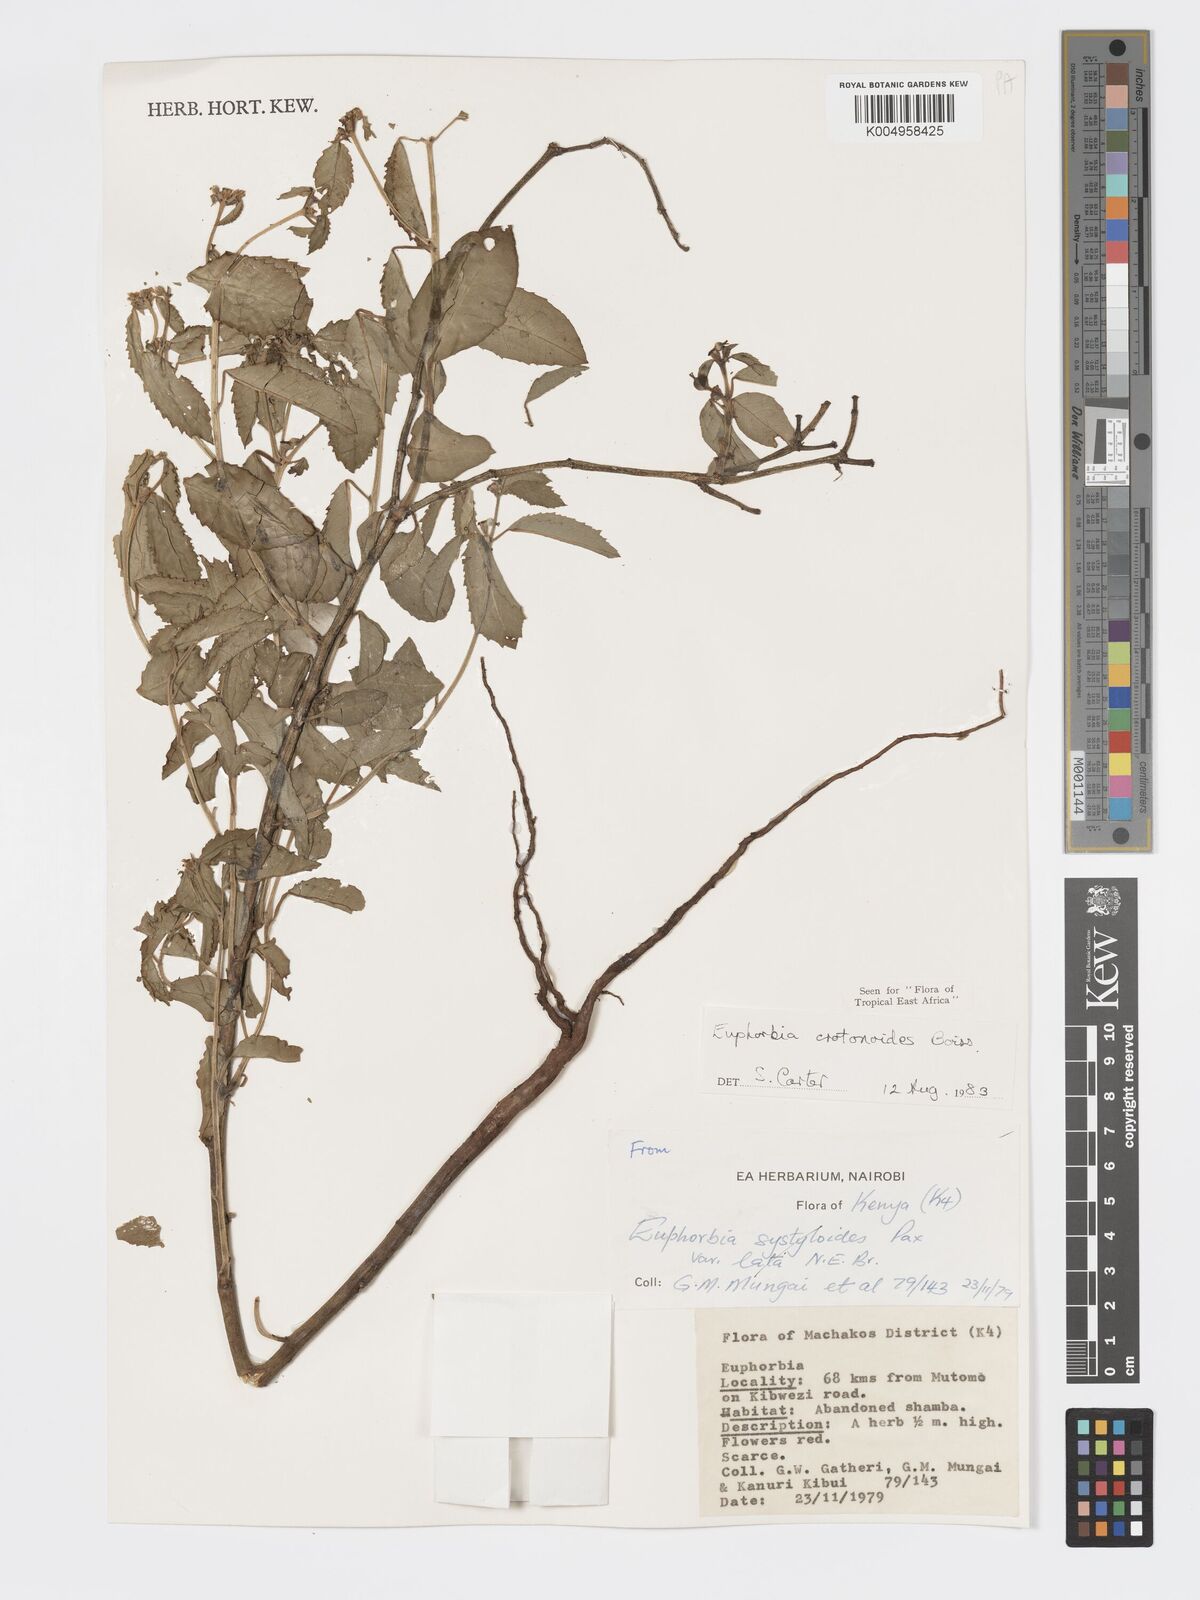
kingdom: Plantae
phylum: Tracheophyta
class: Magnoliopsida
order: Malpighiales
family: Euphorbiaceae
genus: Euphorbia
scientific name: Euphorbia crotonoides
